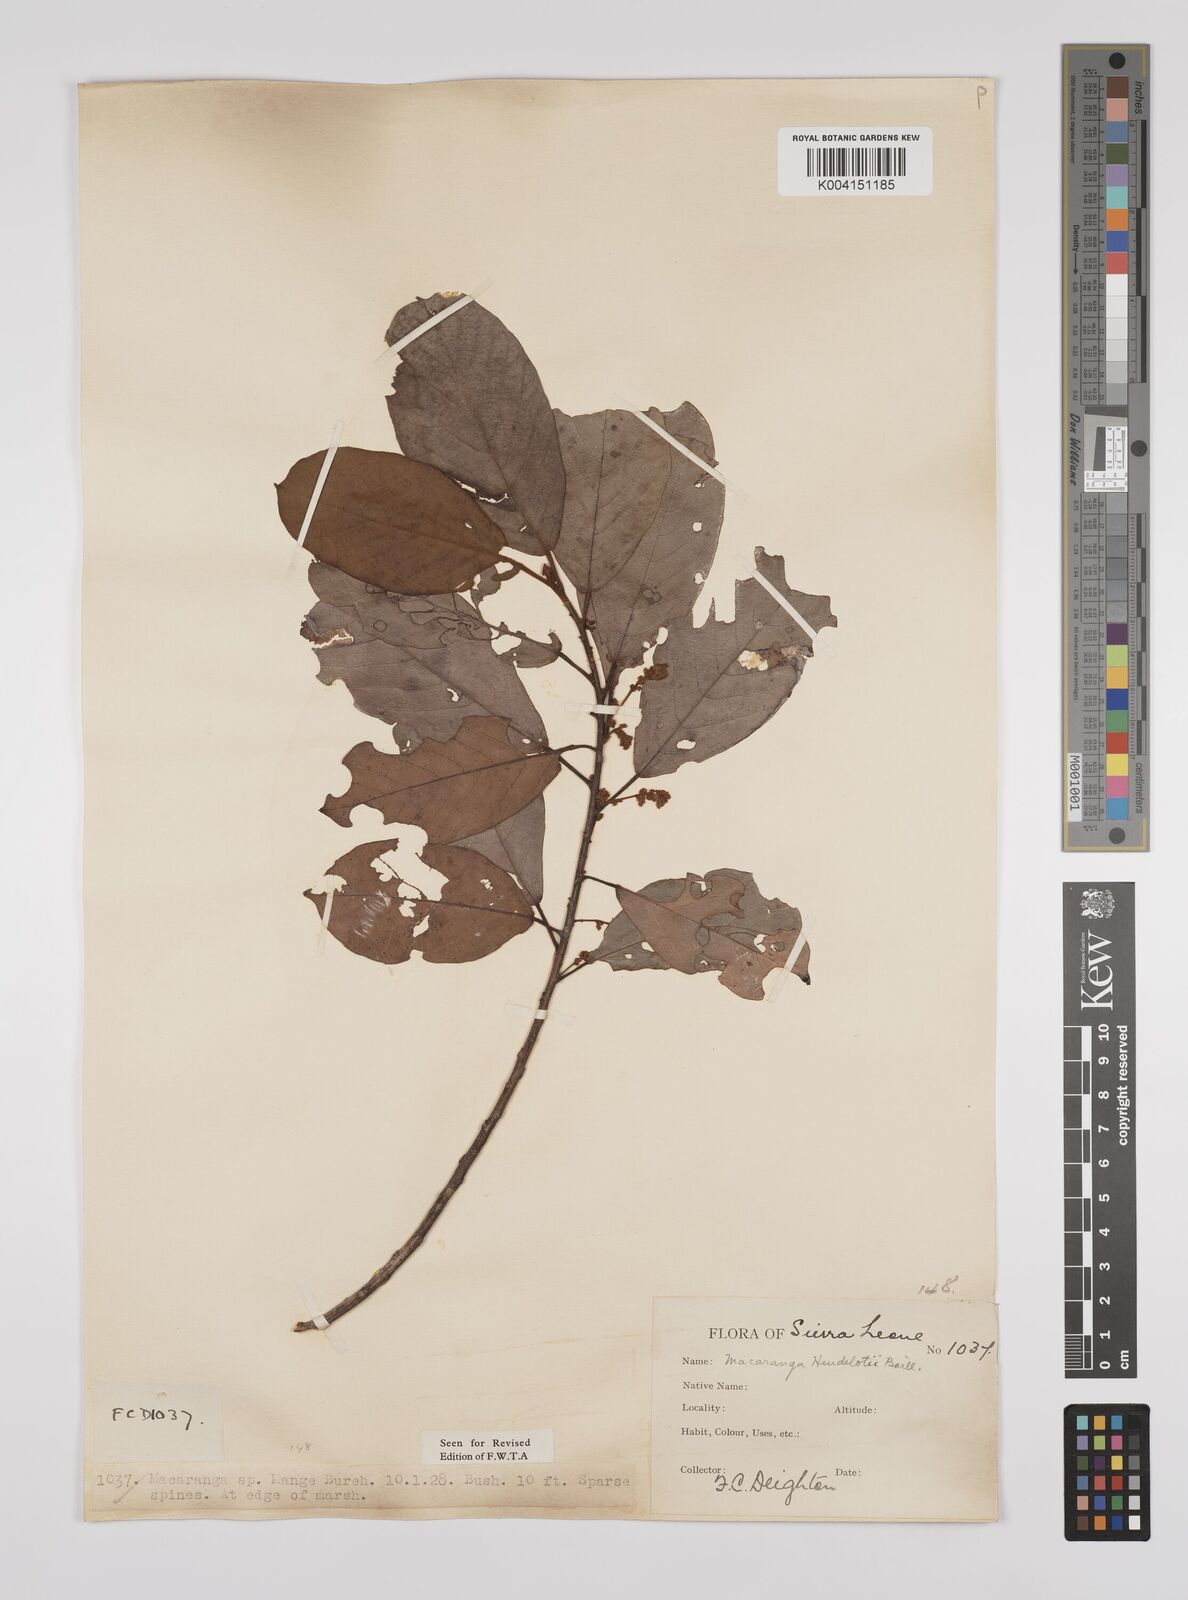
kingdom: Plantae
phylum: Tracheophyta
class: Magnoliopsida
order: Malpighiales
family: Euphorbiaceae
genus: Macaranga
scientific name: Macaranga heudelotii
